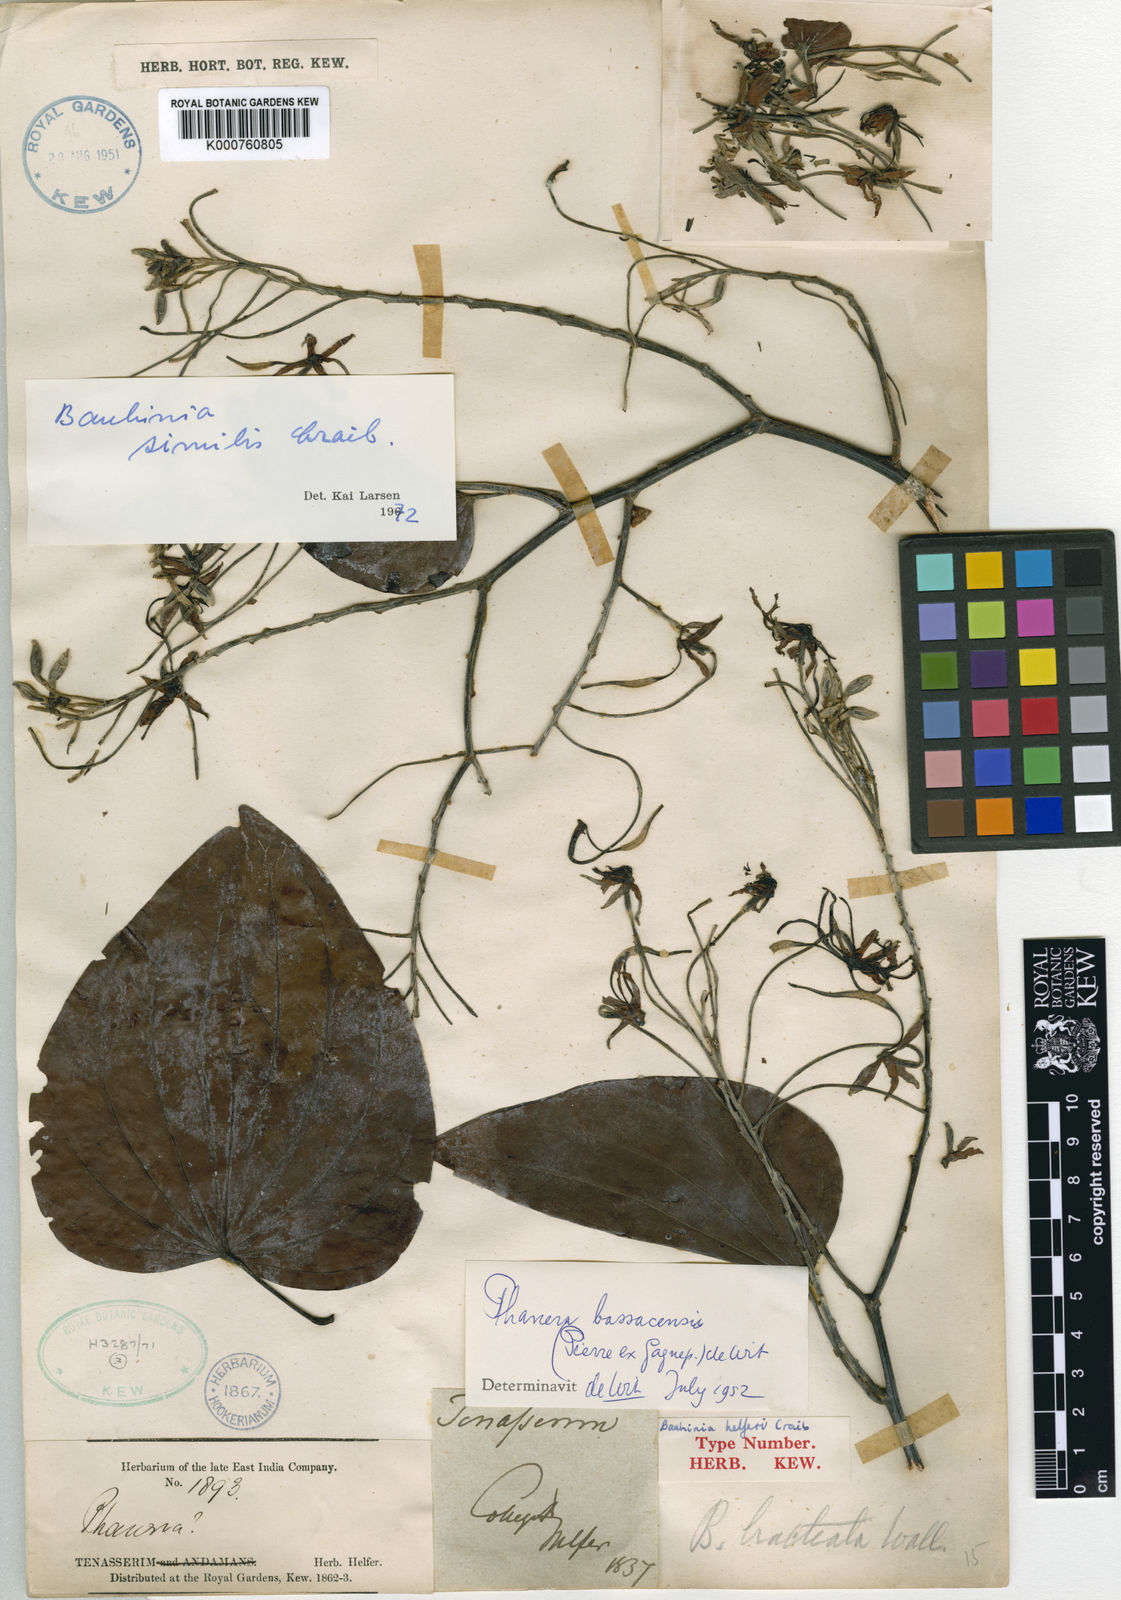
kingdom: Plantae
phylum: Tracheophyta
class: Magnoliopsida
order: Fabales
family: Fabaceae
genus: Phanera
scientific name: Phanera similis
